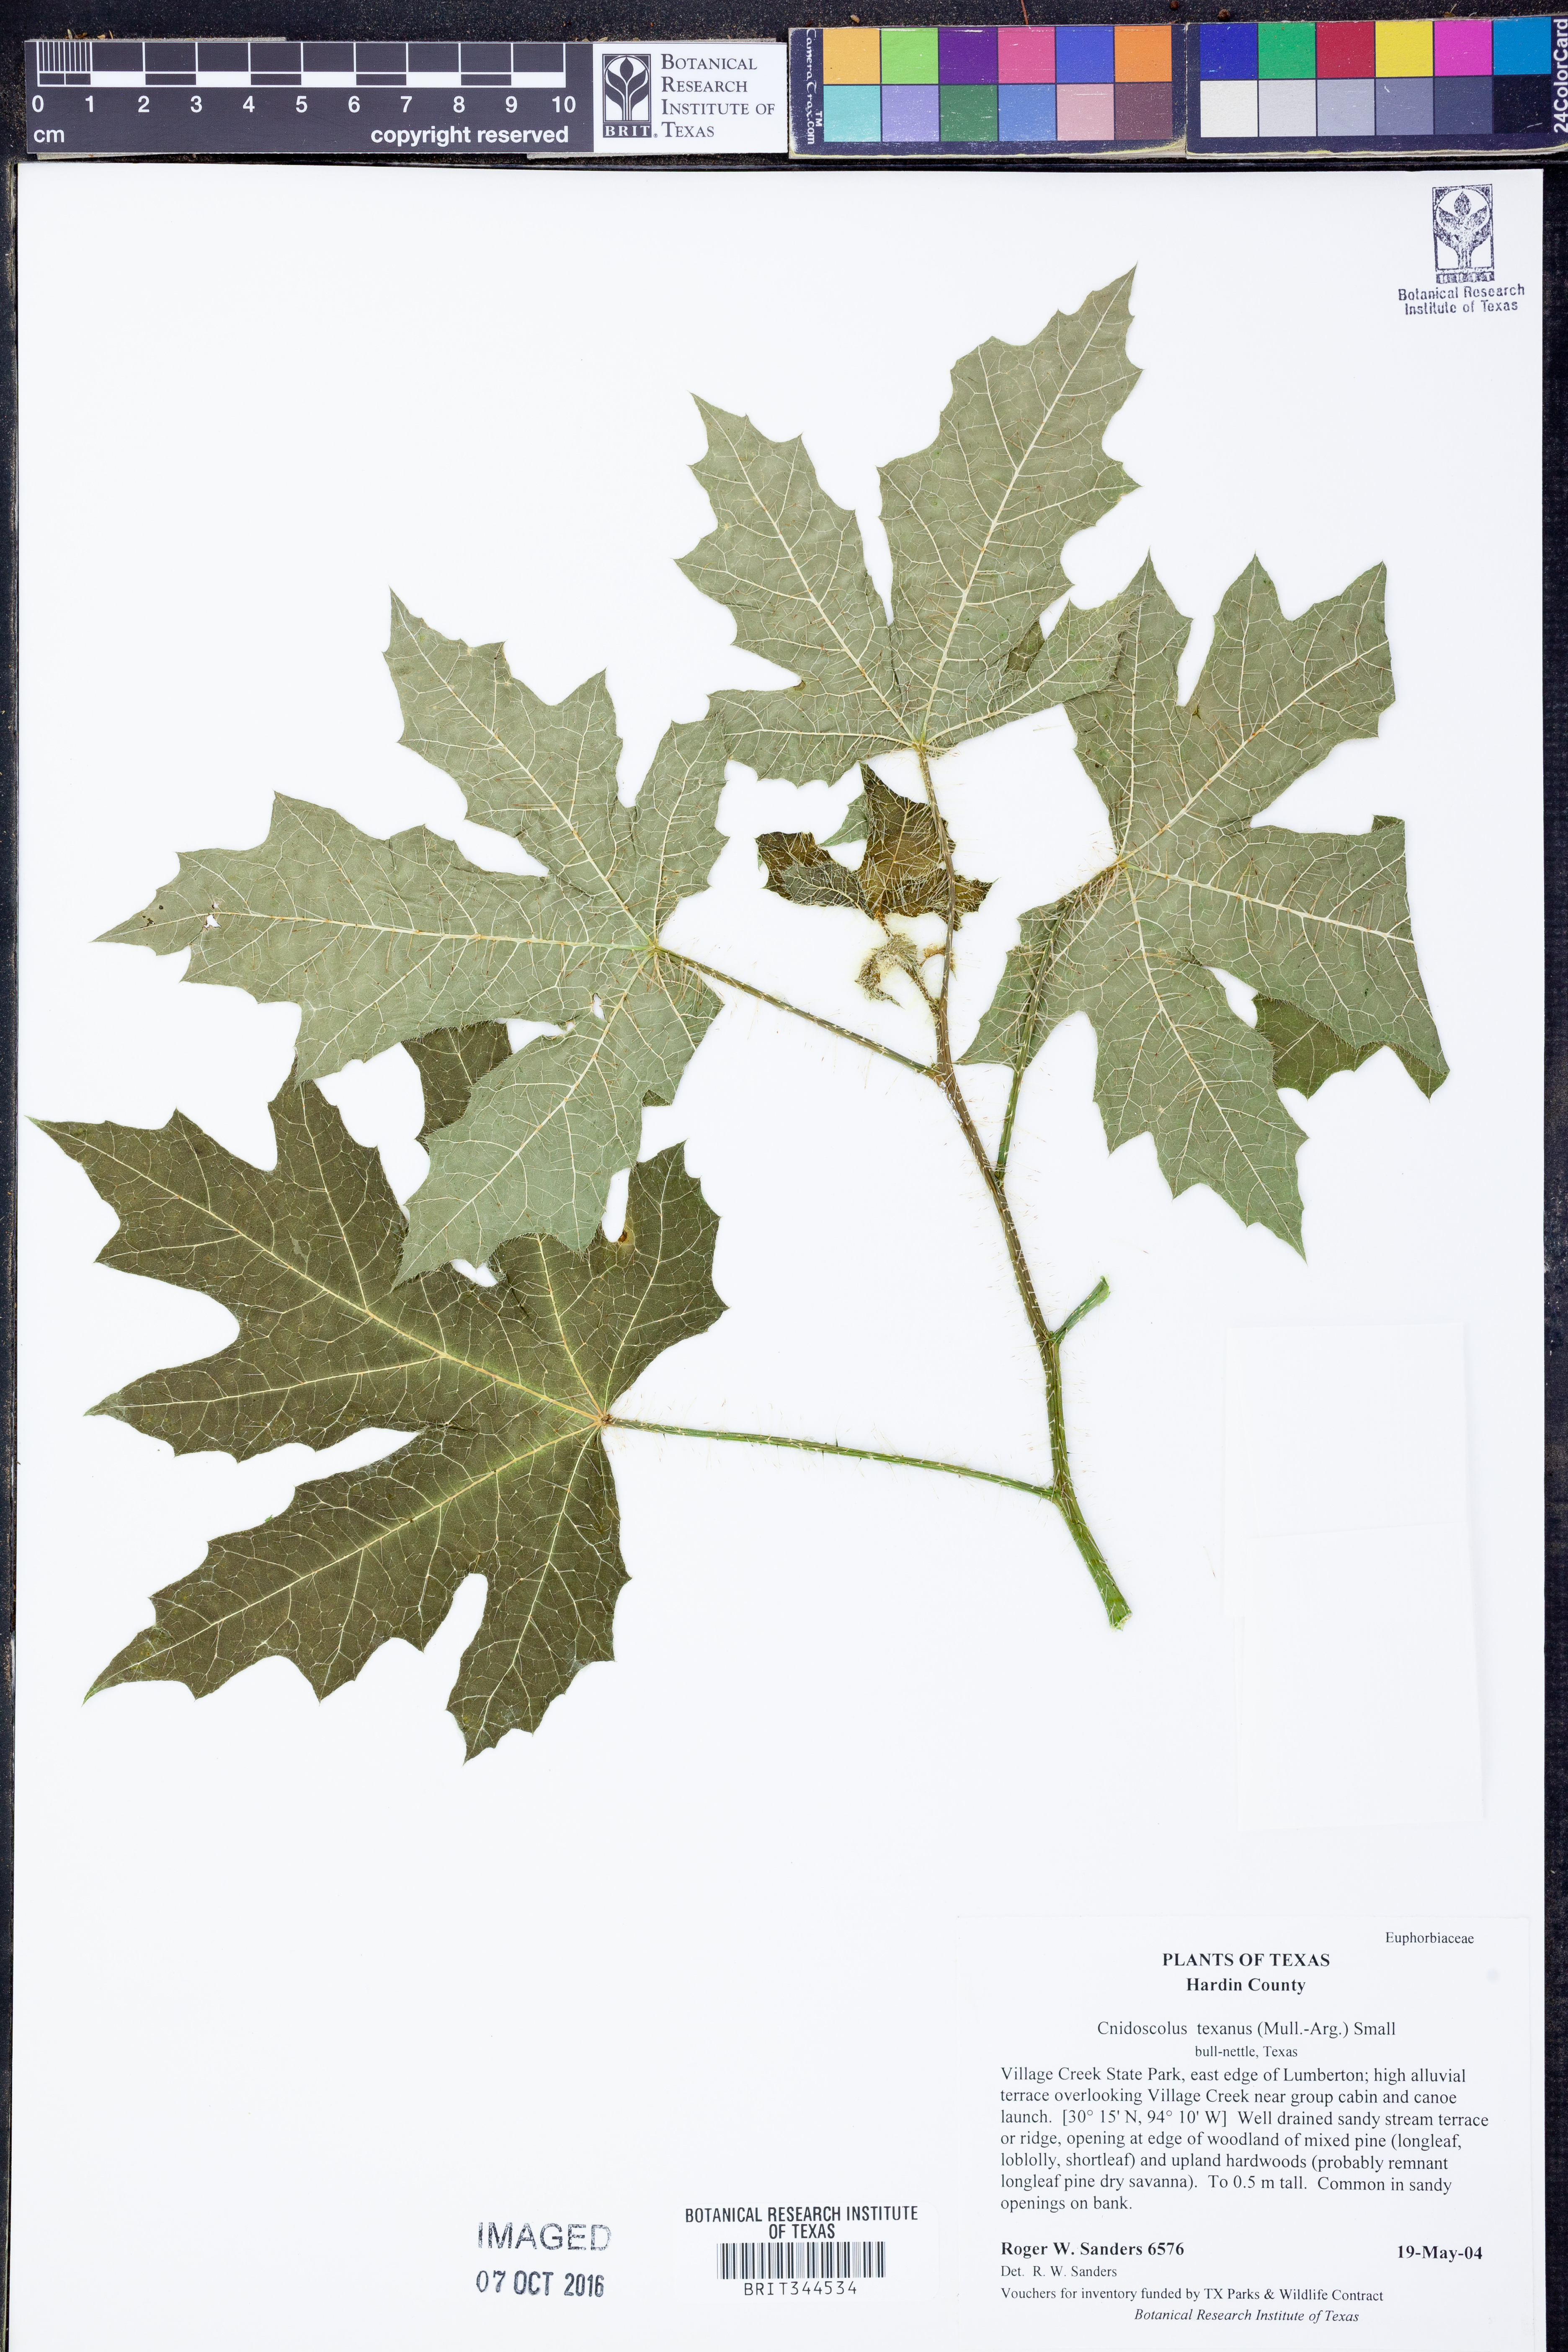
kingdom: Plantae
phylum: Tracheophyta
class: Magnoliopsida
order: Malpighiales
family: Euphorbiaceae
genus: Cnidoscolus
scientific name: Cnidoscolus texanus
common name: Texas bull-nettle
